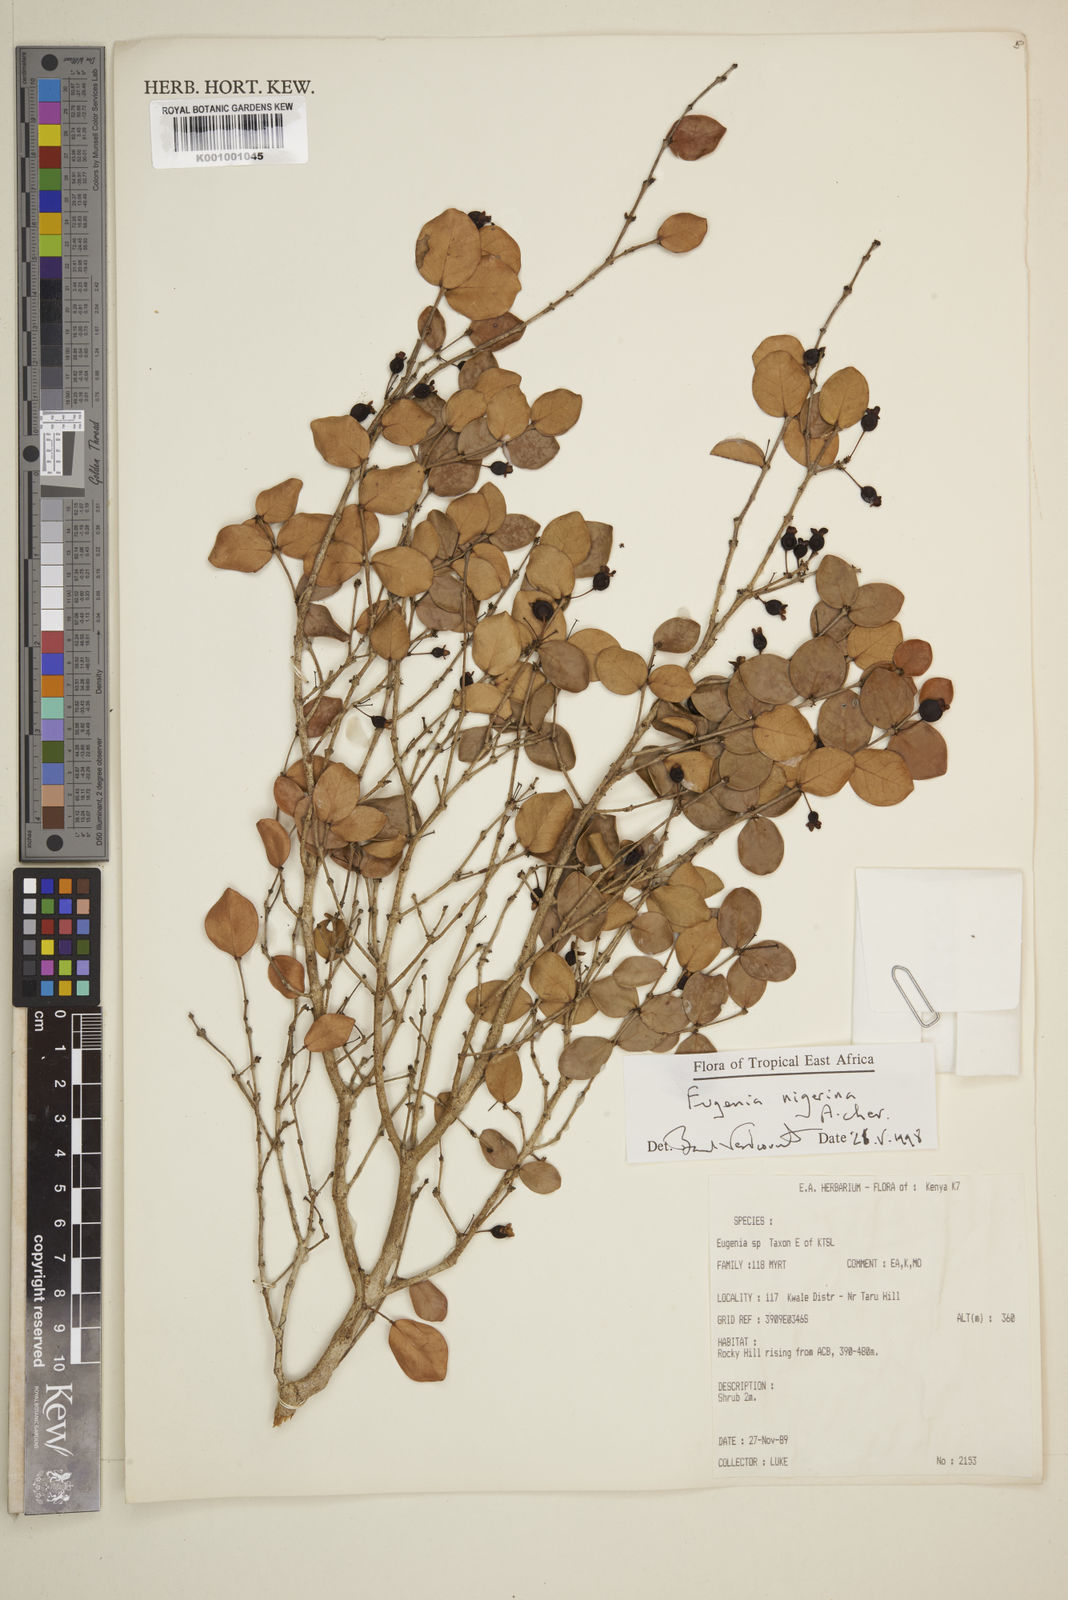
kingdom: Plantae
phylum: Tracheophyta
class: Magnoliopsida
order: Myrtales
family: Myrtaceae
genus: Eugenia
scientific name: Eugenia nigerina
